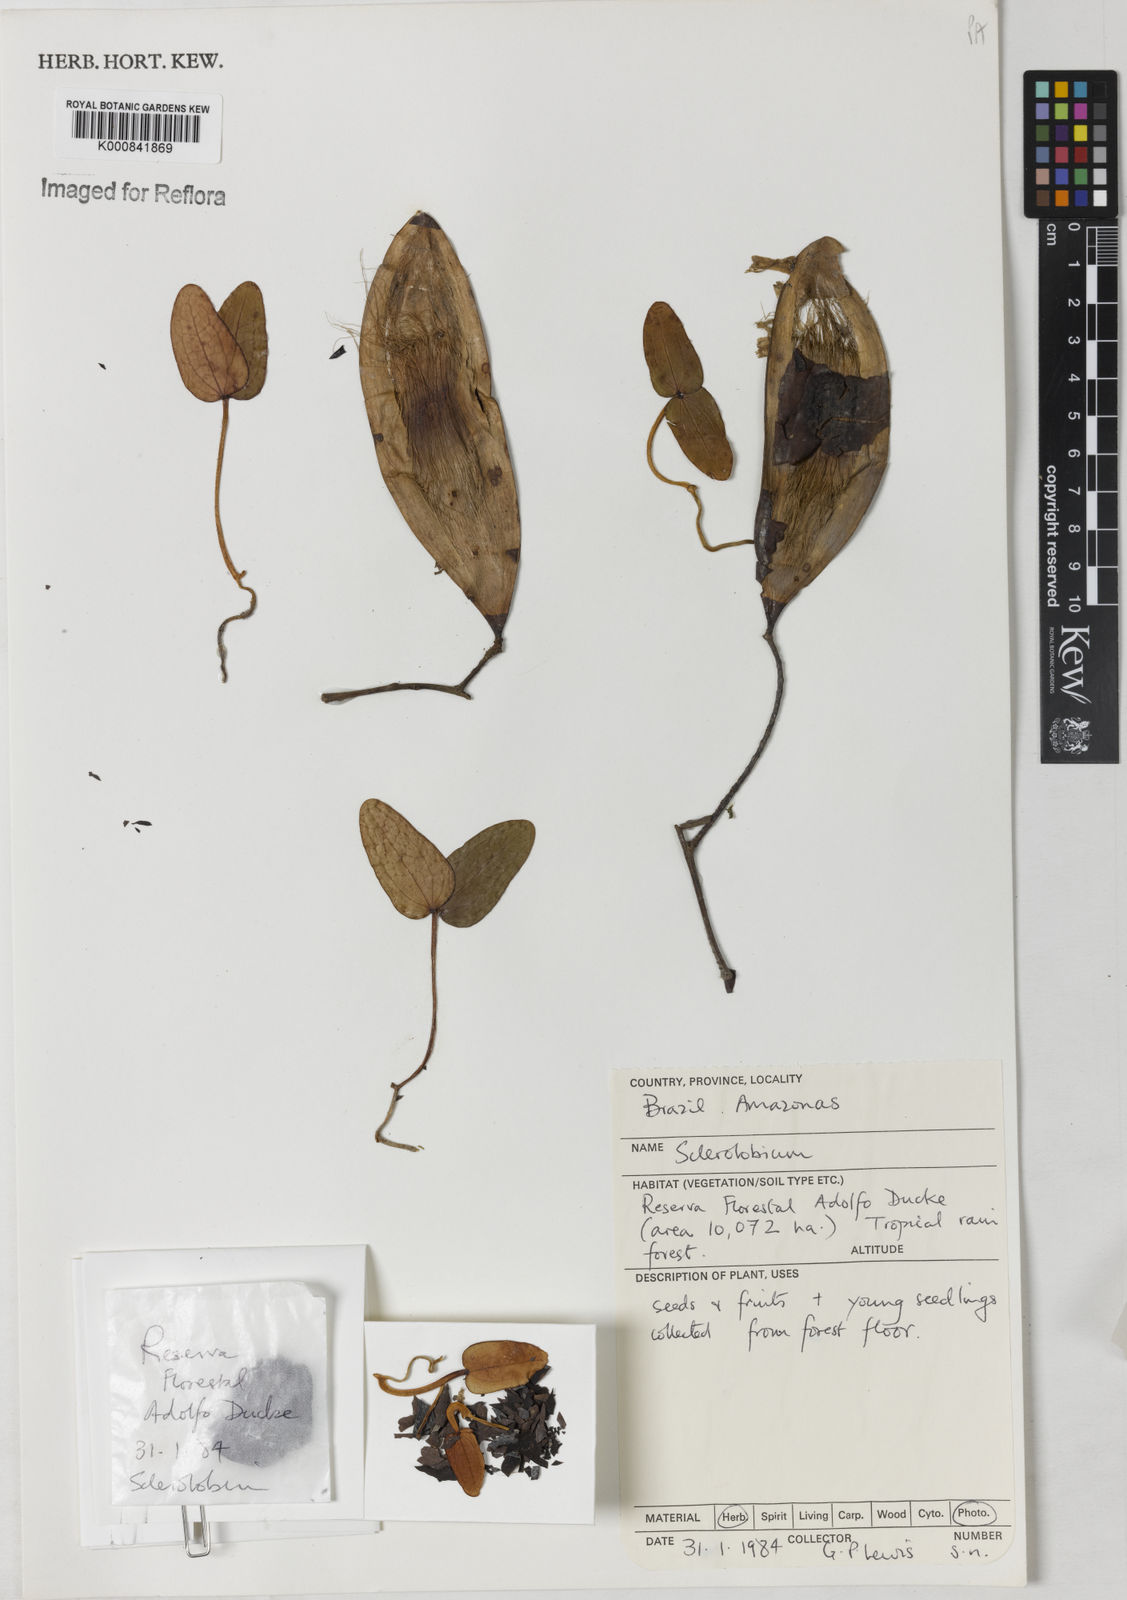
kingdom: Plantae
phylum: Tracheophyta
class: Magnoliopsida
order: Fabales
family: Fabaceae
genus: Tachigali
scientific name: Tachigali
